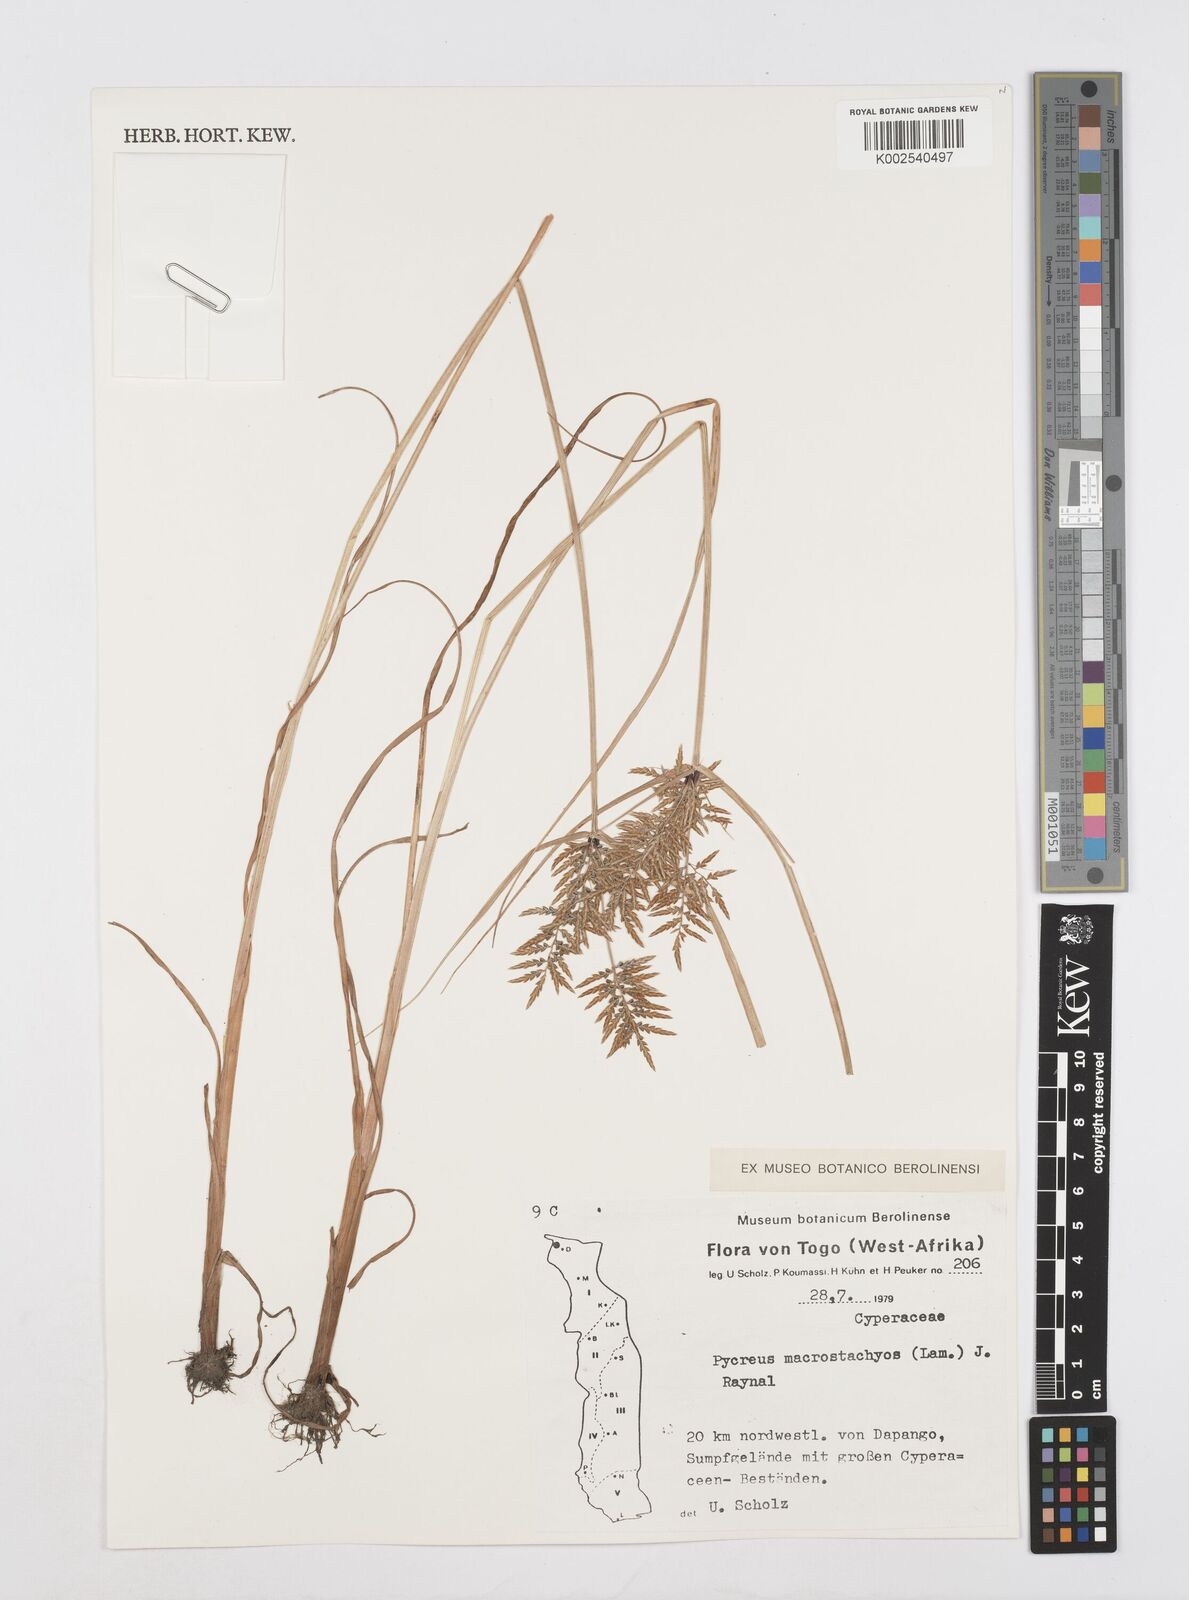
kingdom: Plantae
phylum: Tracheophyta
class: Liliopsida
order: Poales
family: Cyperaceae
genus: Cyperus
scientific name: Cyperus macrostachyos
